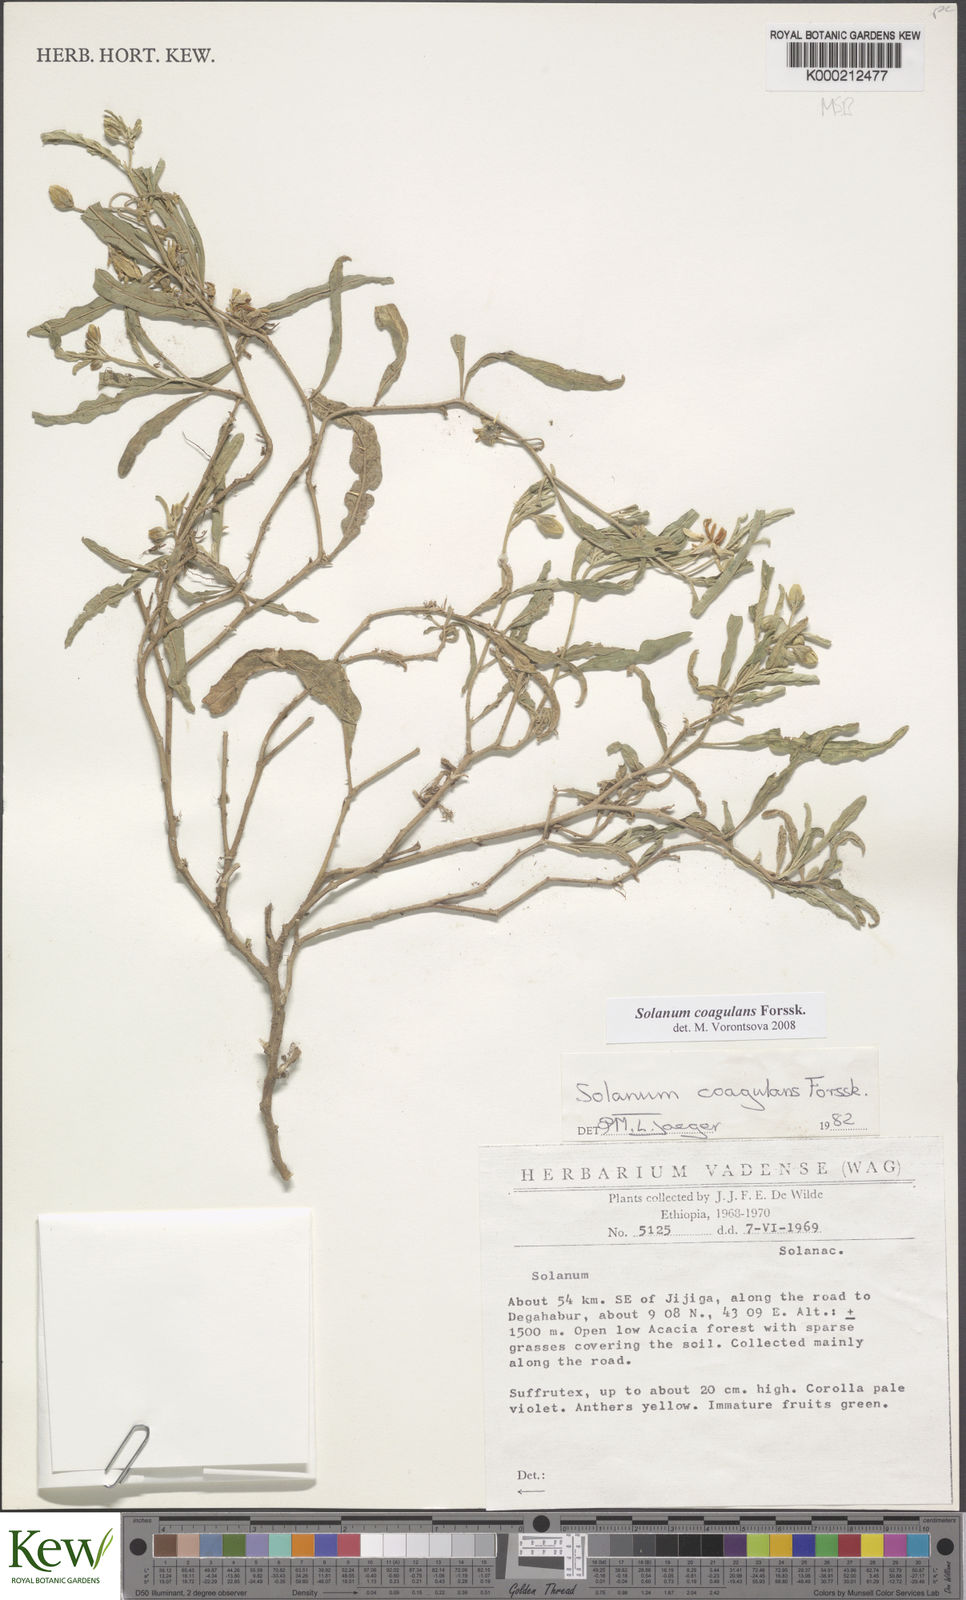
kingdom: Plantae
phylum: Tracheophyta
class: Magnoliopsida
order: Solanales
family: Solanaceae
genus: Solanum
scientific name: Solanum coagulans
